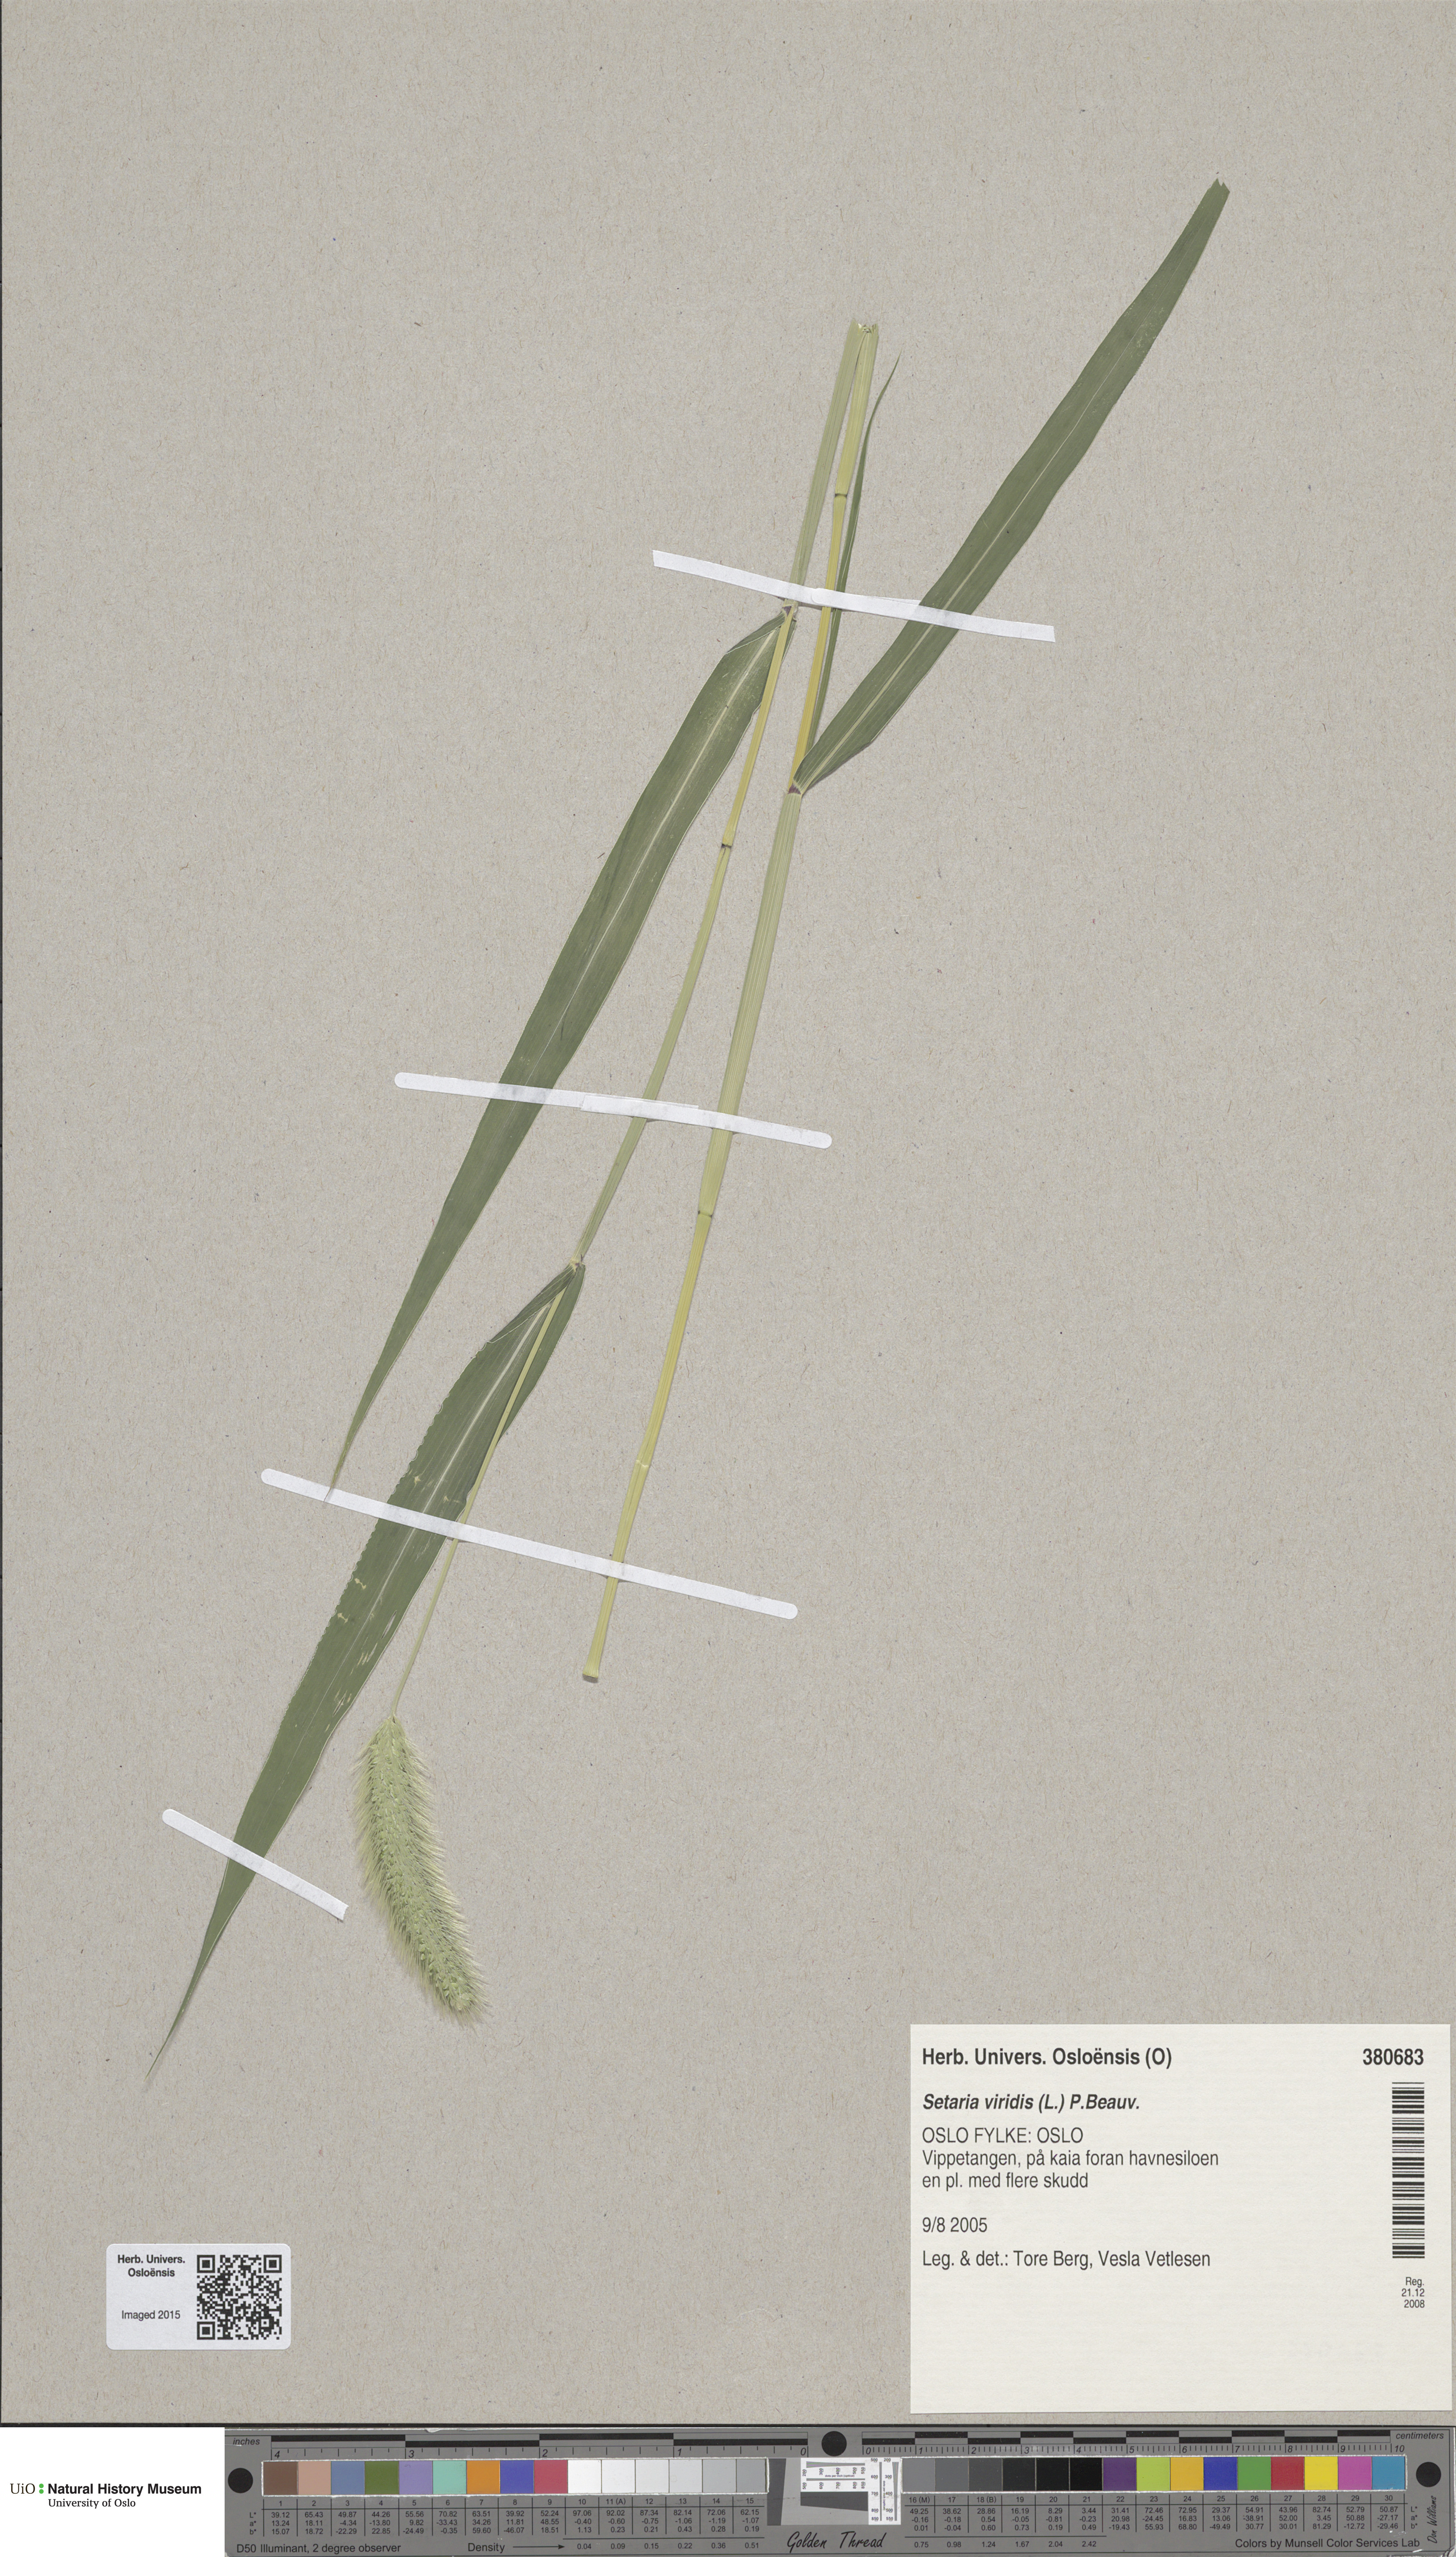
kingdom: Plantae
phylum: Tracheophyta
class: Liliopsida
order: Poales
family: Poaceae
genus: Setaria
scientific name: Setaria viridis
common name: Green bristlegrass
